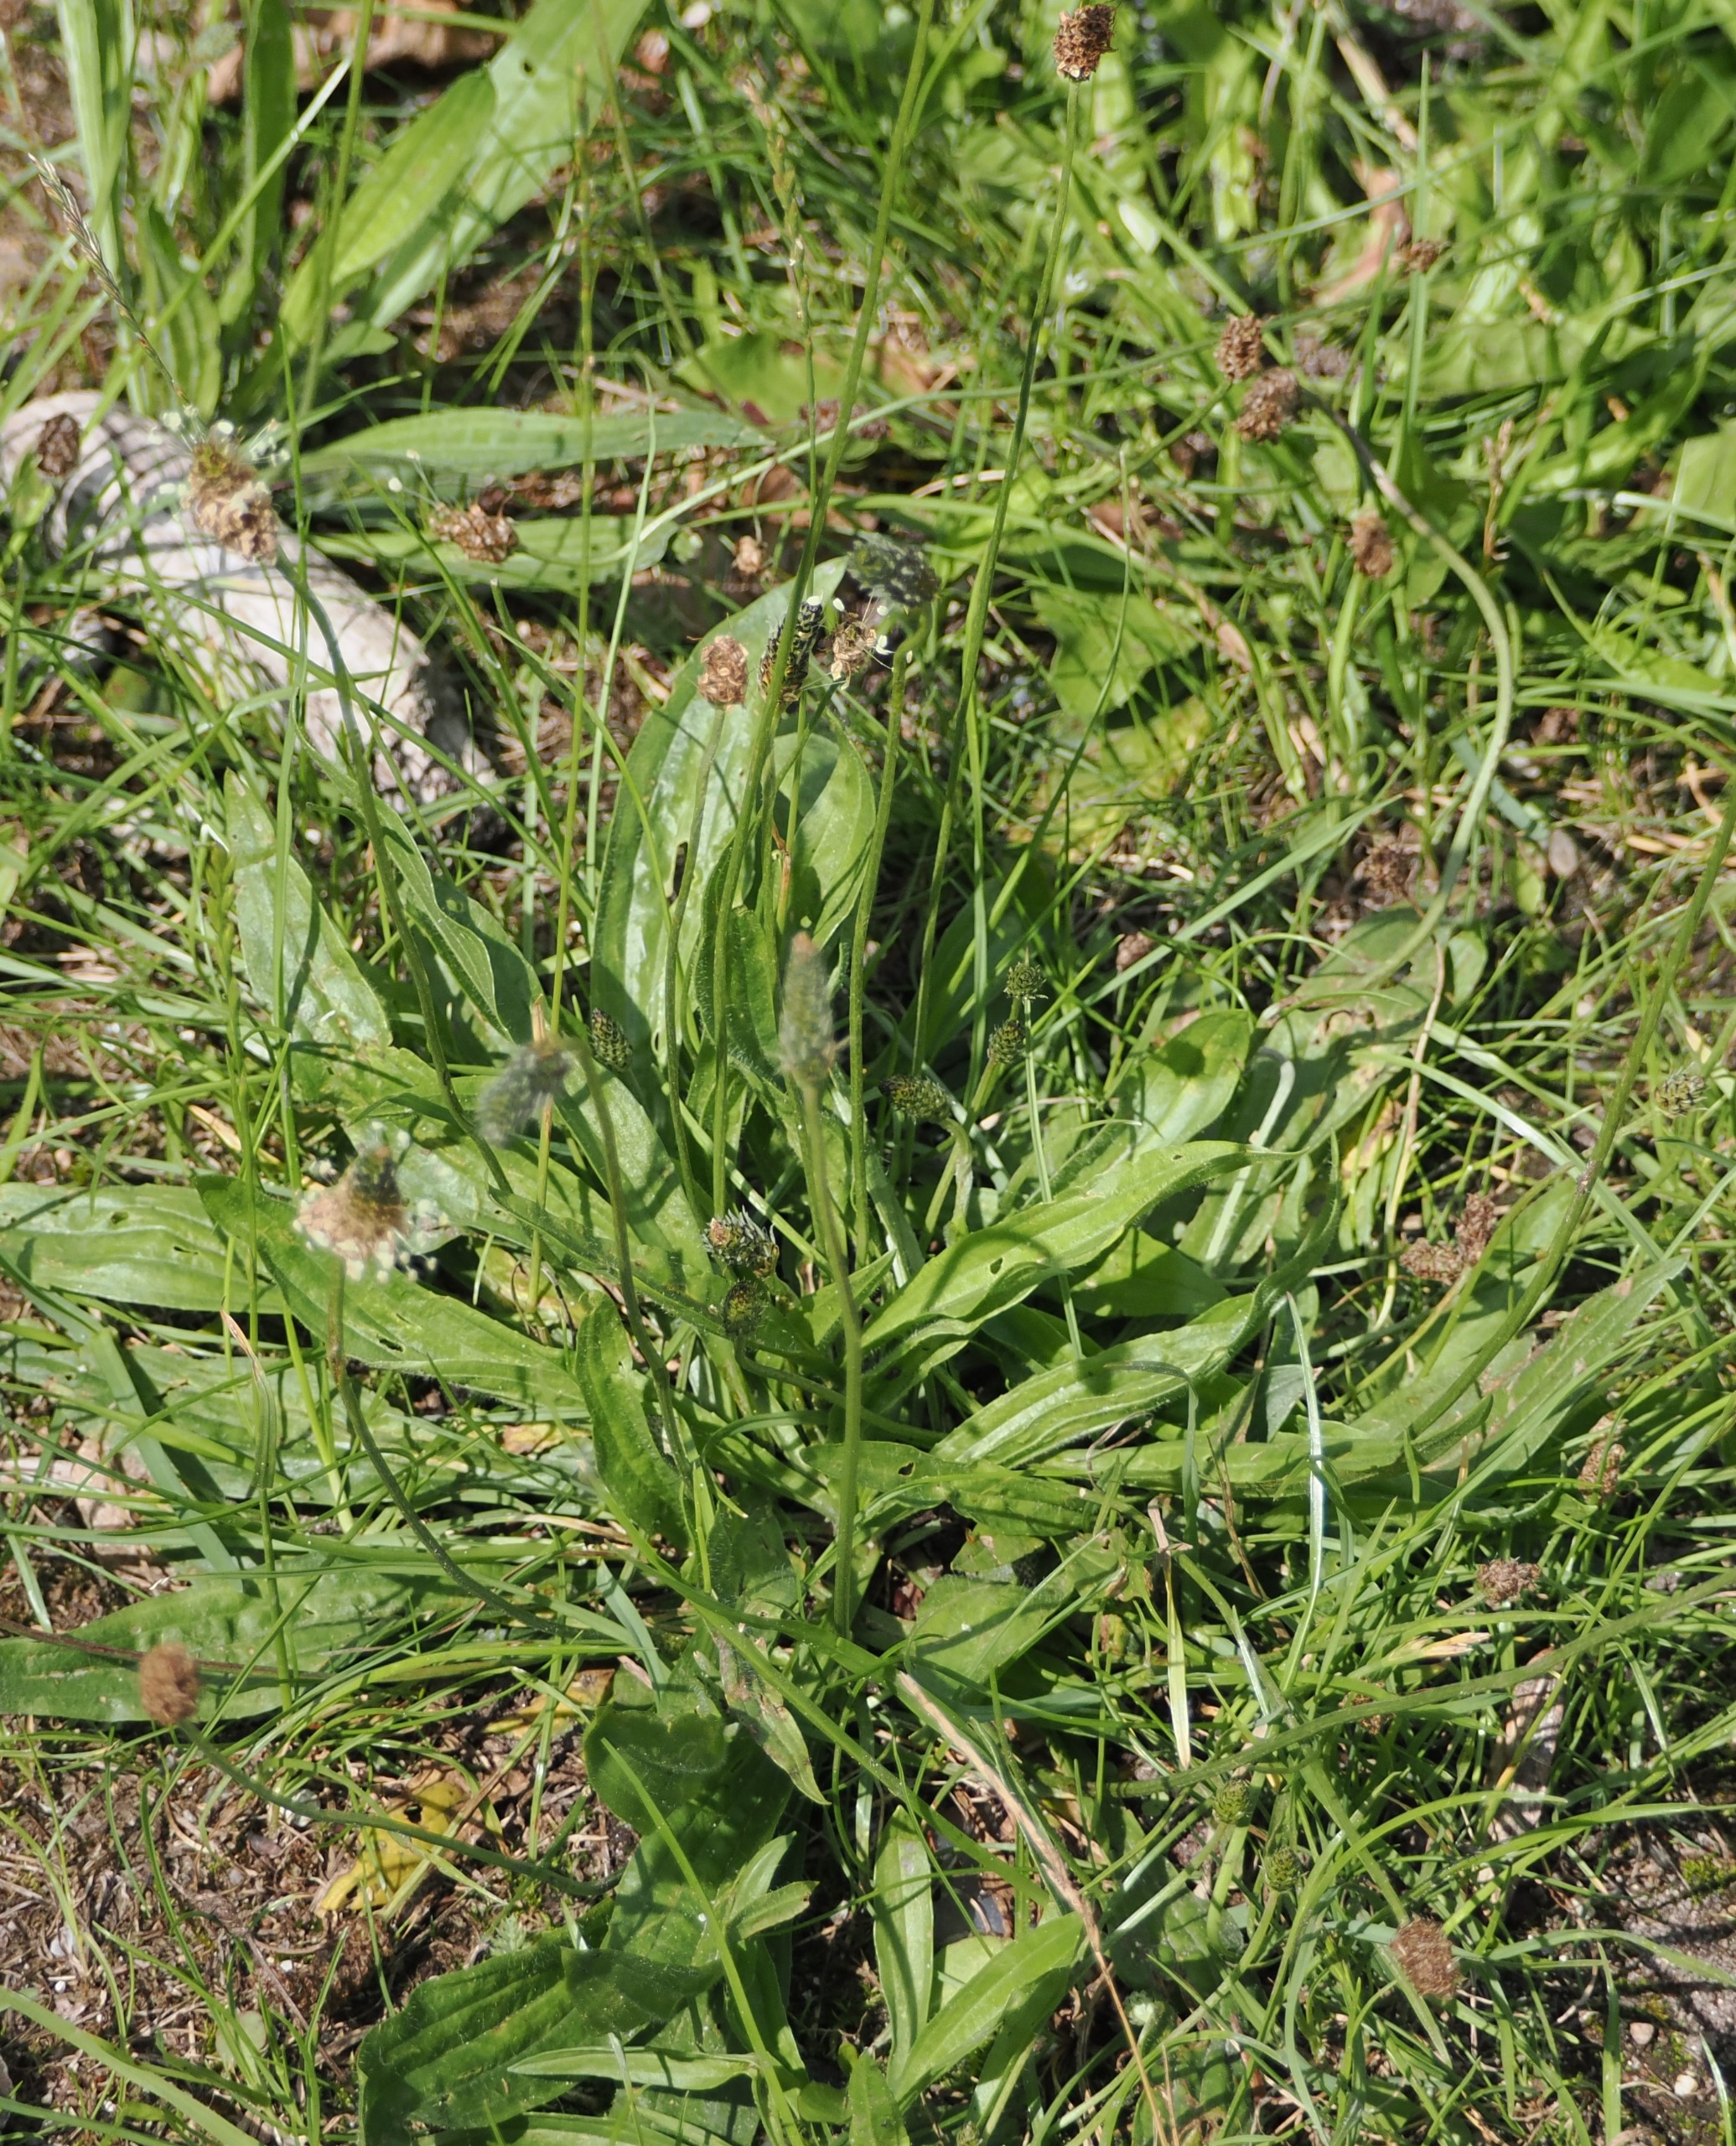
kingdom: Plantae
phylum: Tracheophyta
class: Magnoliopsida
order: Lamiales
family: Plantaginaceae
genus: Plantago
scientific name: Plantago lanceolata
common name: Lancet-vejbred
